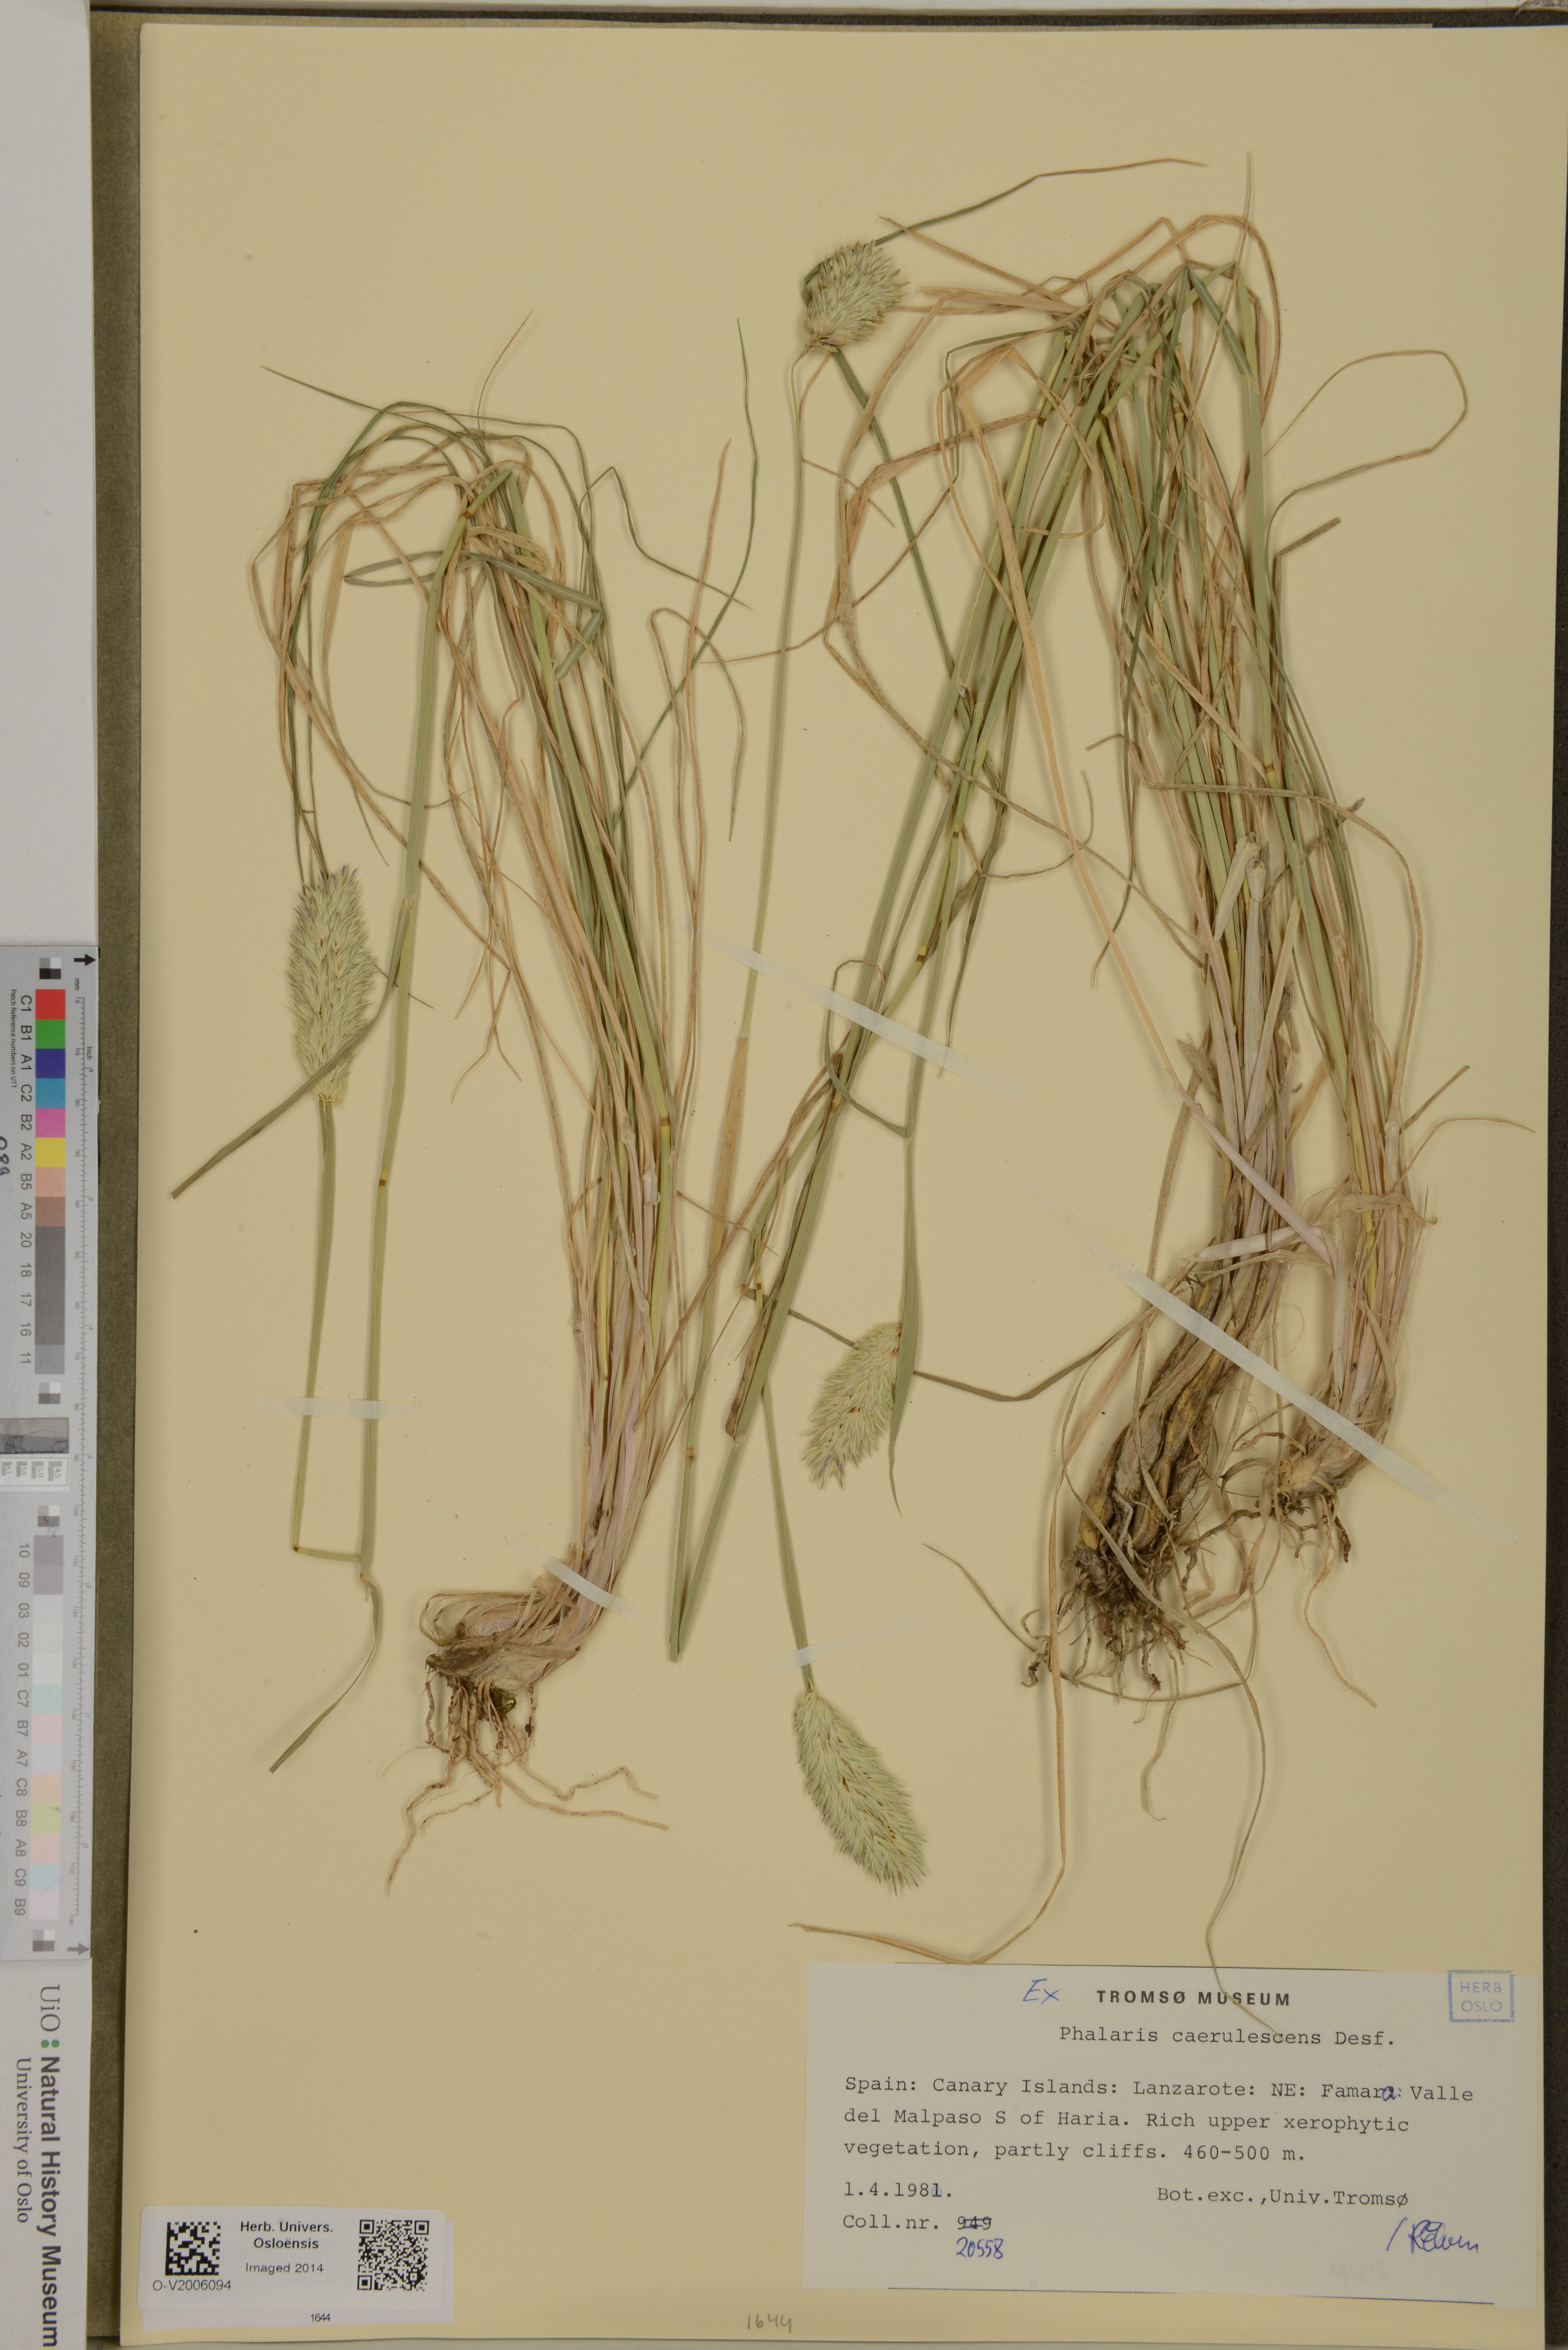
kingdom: Plantae
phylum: Tracheophyta
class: Liliopsida
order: Poales
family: Poaceae
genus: Phalaris
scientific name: Phalaris coerulescens
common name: Sunolgrass
